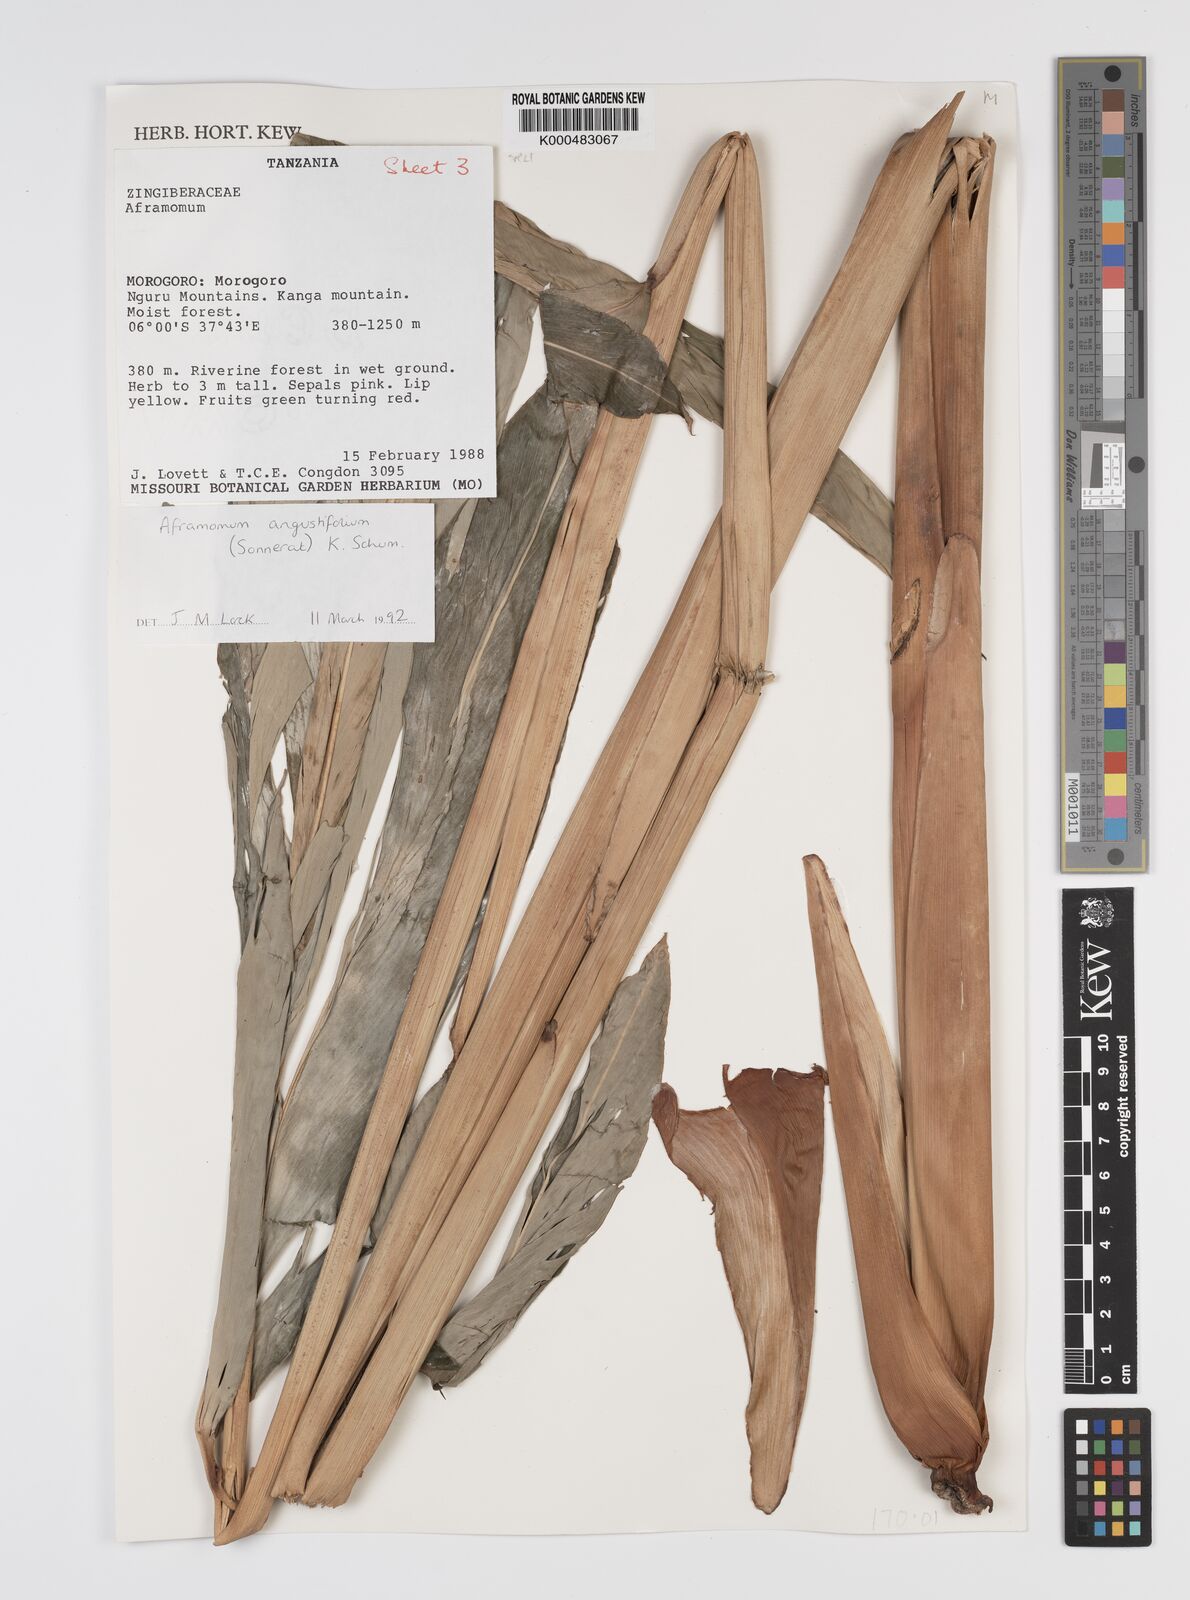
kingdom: Plantae
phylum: Tracheophyta
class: Liliopsida
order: Zingiberales
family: Zingiberaceae
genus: Aframomum
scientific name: Aframomum angustifolium
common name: Guinea grains
